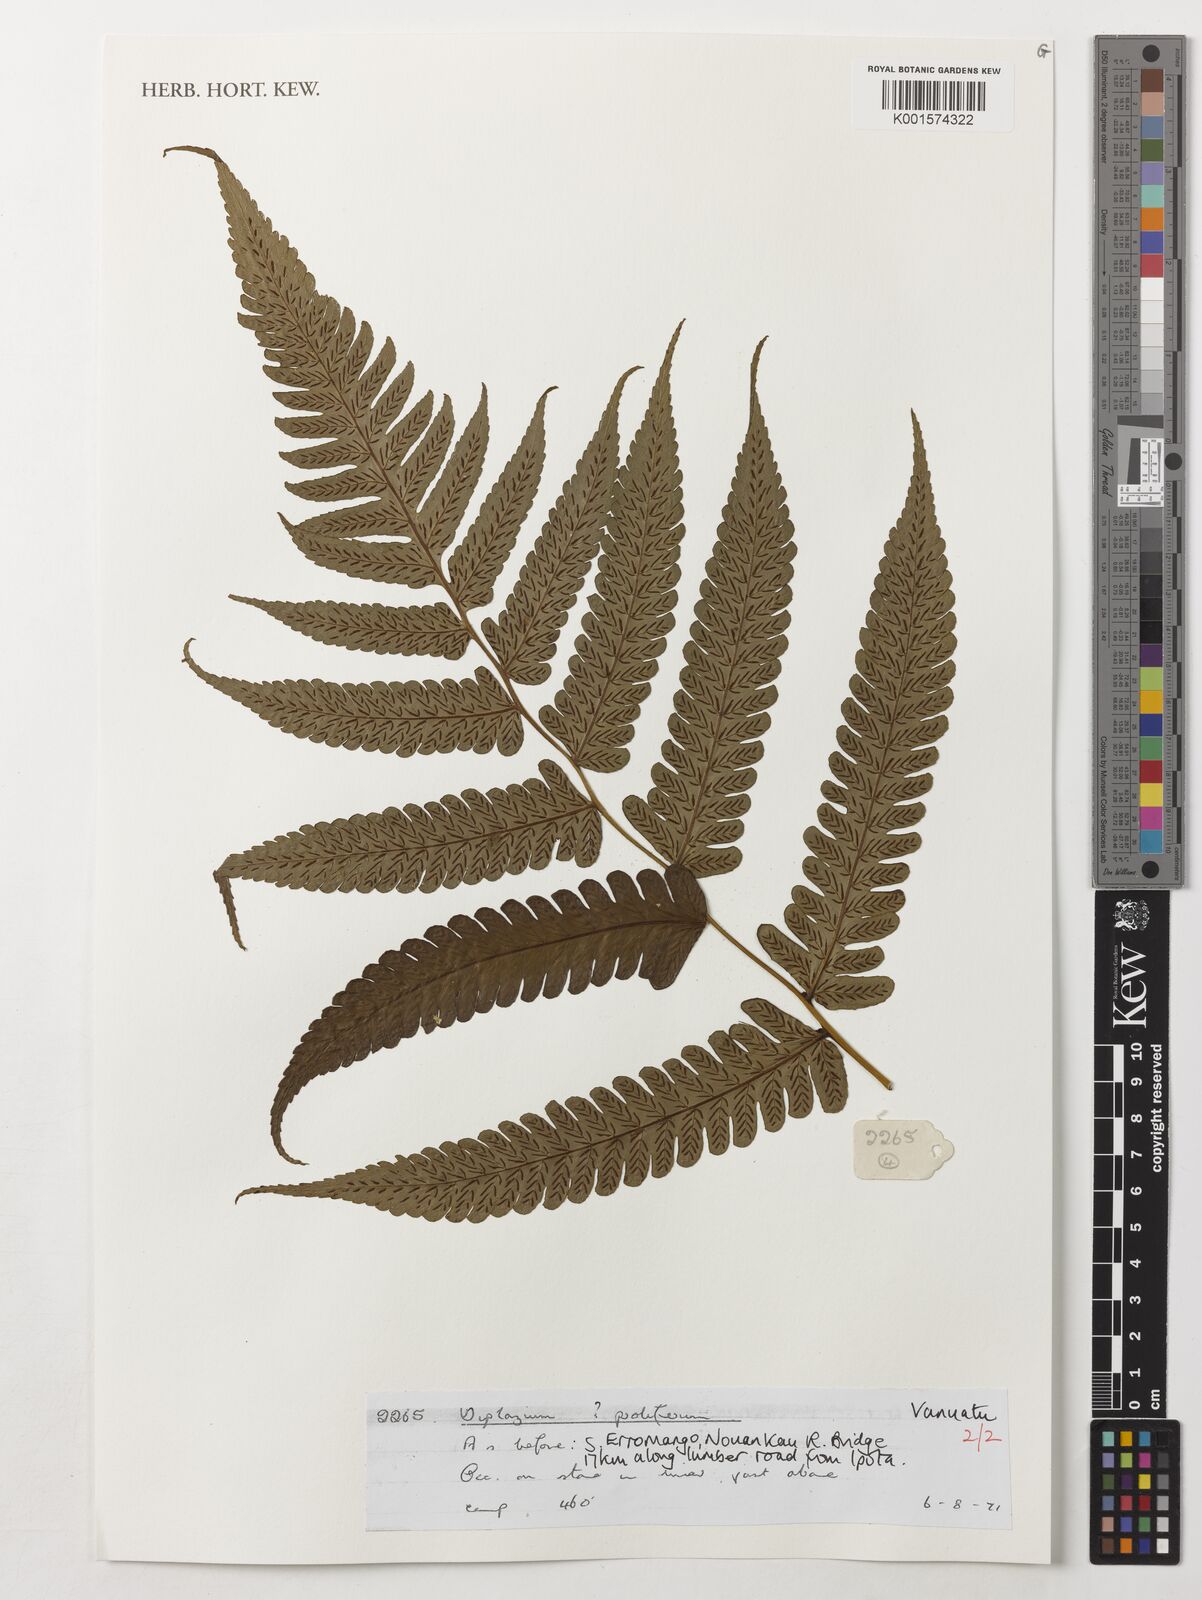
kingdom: Plantae
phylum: Tracheophyta
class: Polypodiopsida
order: Polypodiales
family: Athyriaceae
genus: Diplazium
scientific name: Diplazium proliferum
